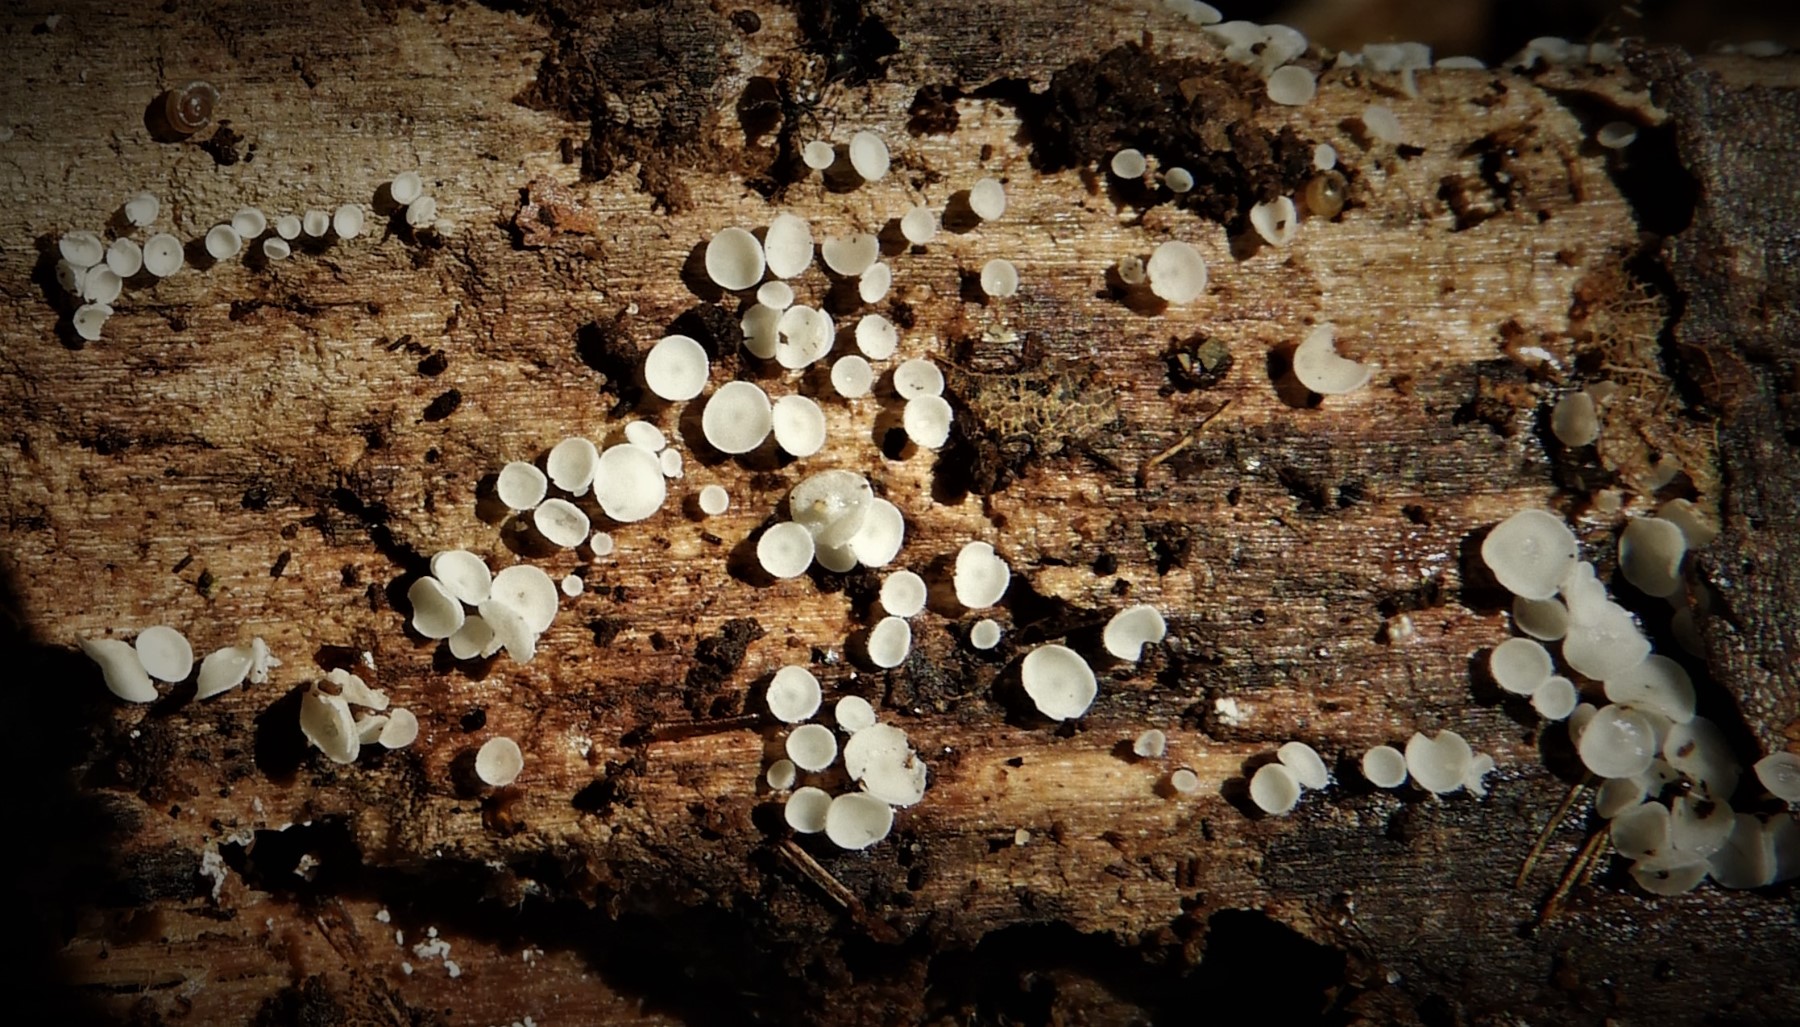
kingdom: Fungi
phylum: Ascomycota
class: Leotiomycetes
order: Helotiales
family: Lachnaceae
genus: Lachnum
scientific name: Lachnum
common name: frynseskive
